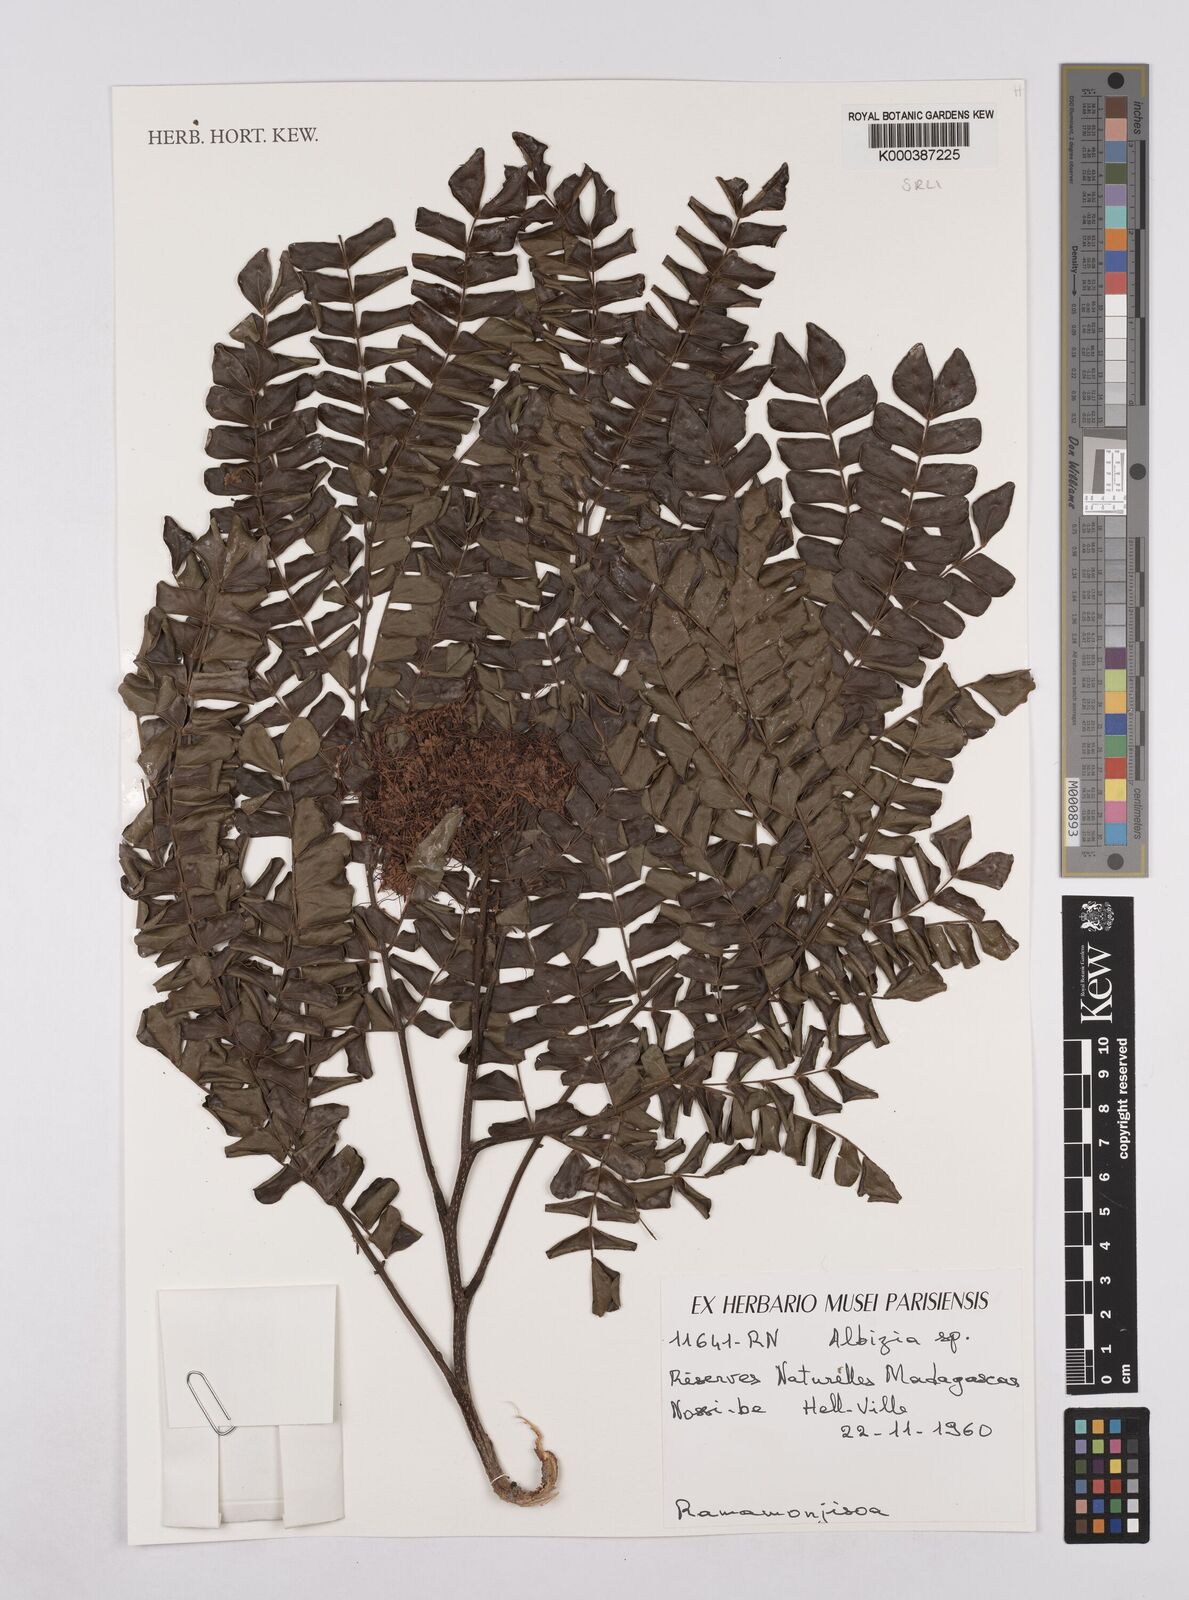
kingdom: Plantae
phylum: Tracheophyta
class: Magnoliopsida
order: Fabales
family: Fabaceae
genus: Albizia
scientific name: Albizia adianthifolia
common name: West african albizia
